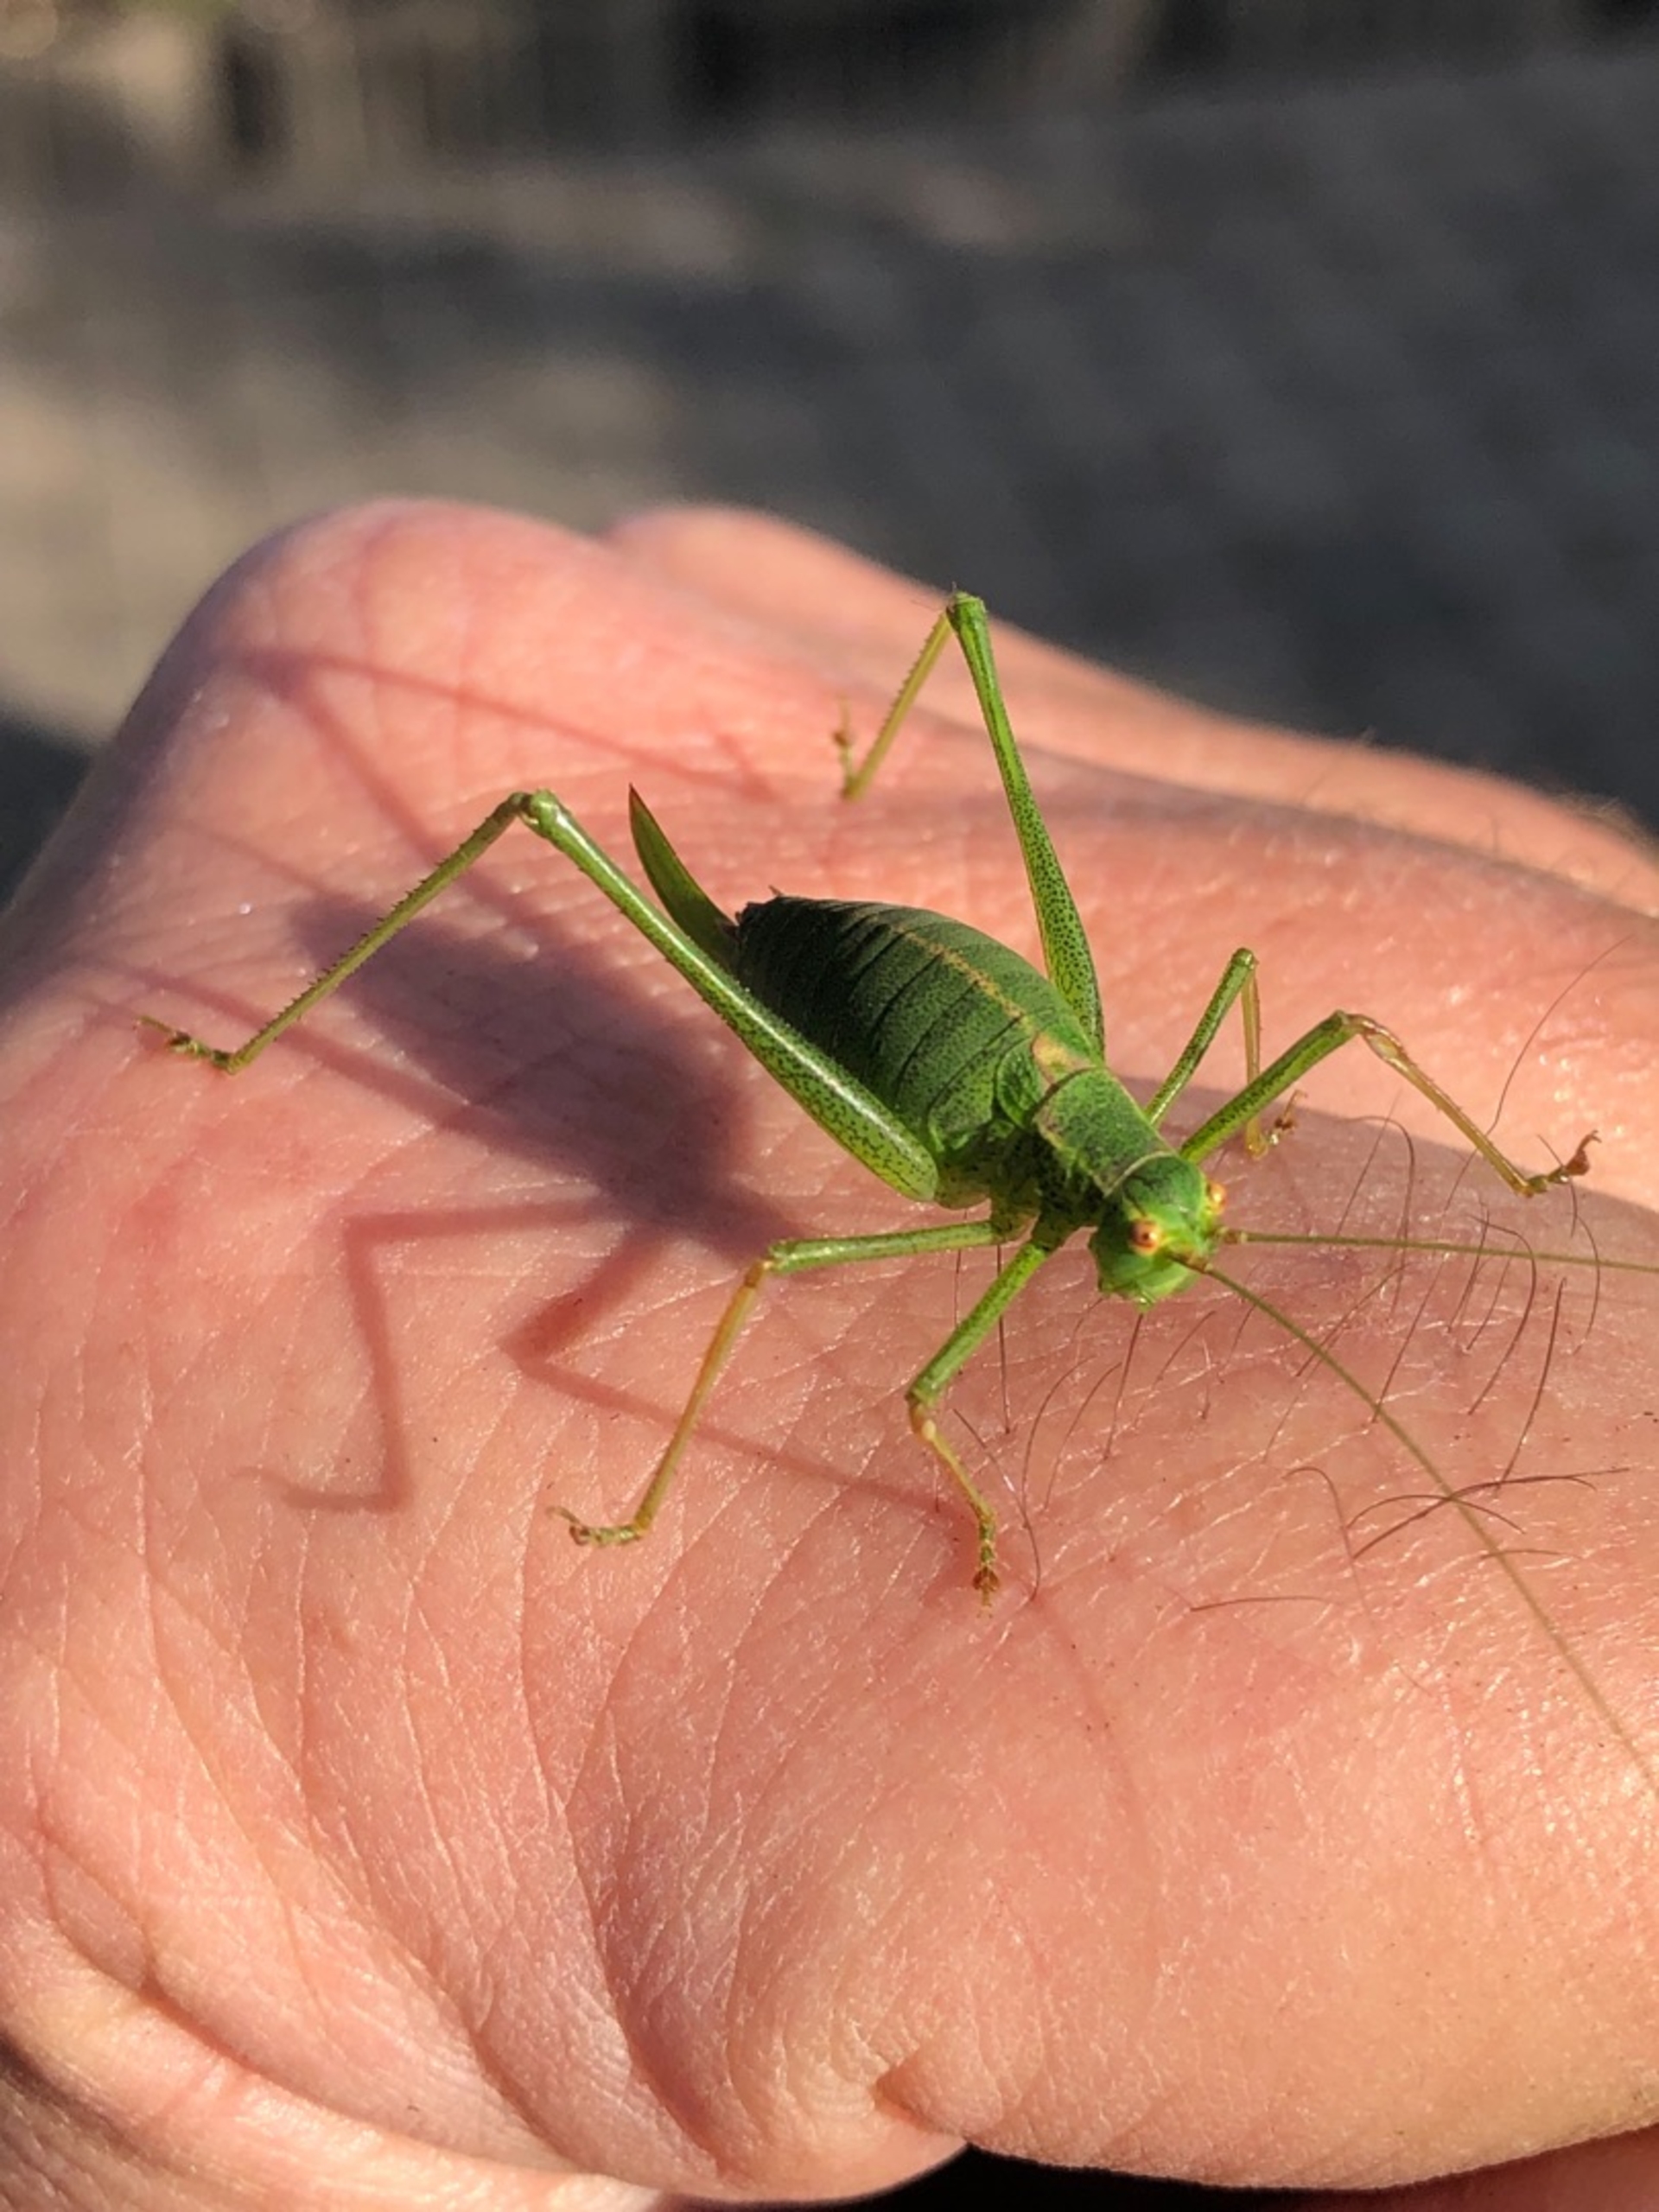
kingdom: Animalia
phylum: Arthropoda
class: Insecta
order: Orthoptera
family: Tettigoniidae
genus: Leptophyes
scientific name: Leptophyes punctatissima
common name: Krumknivgræshoppe
